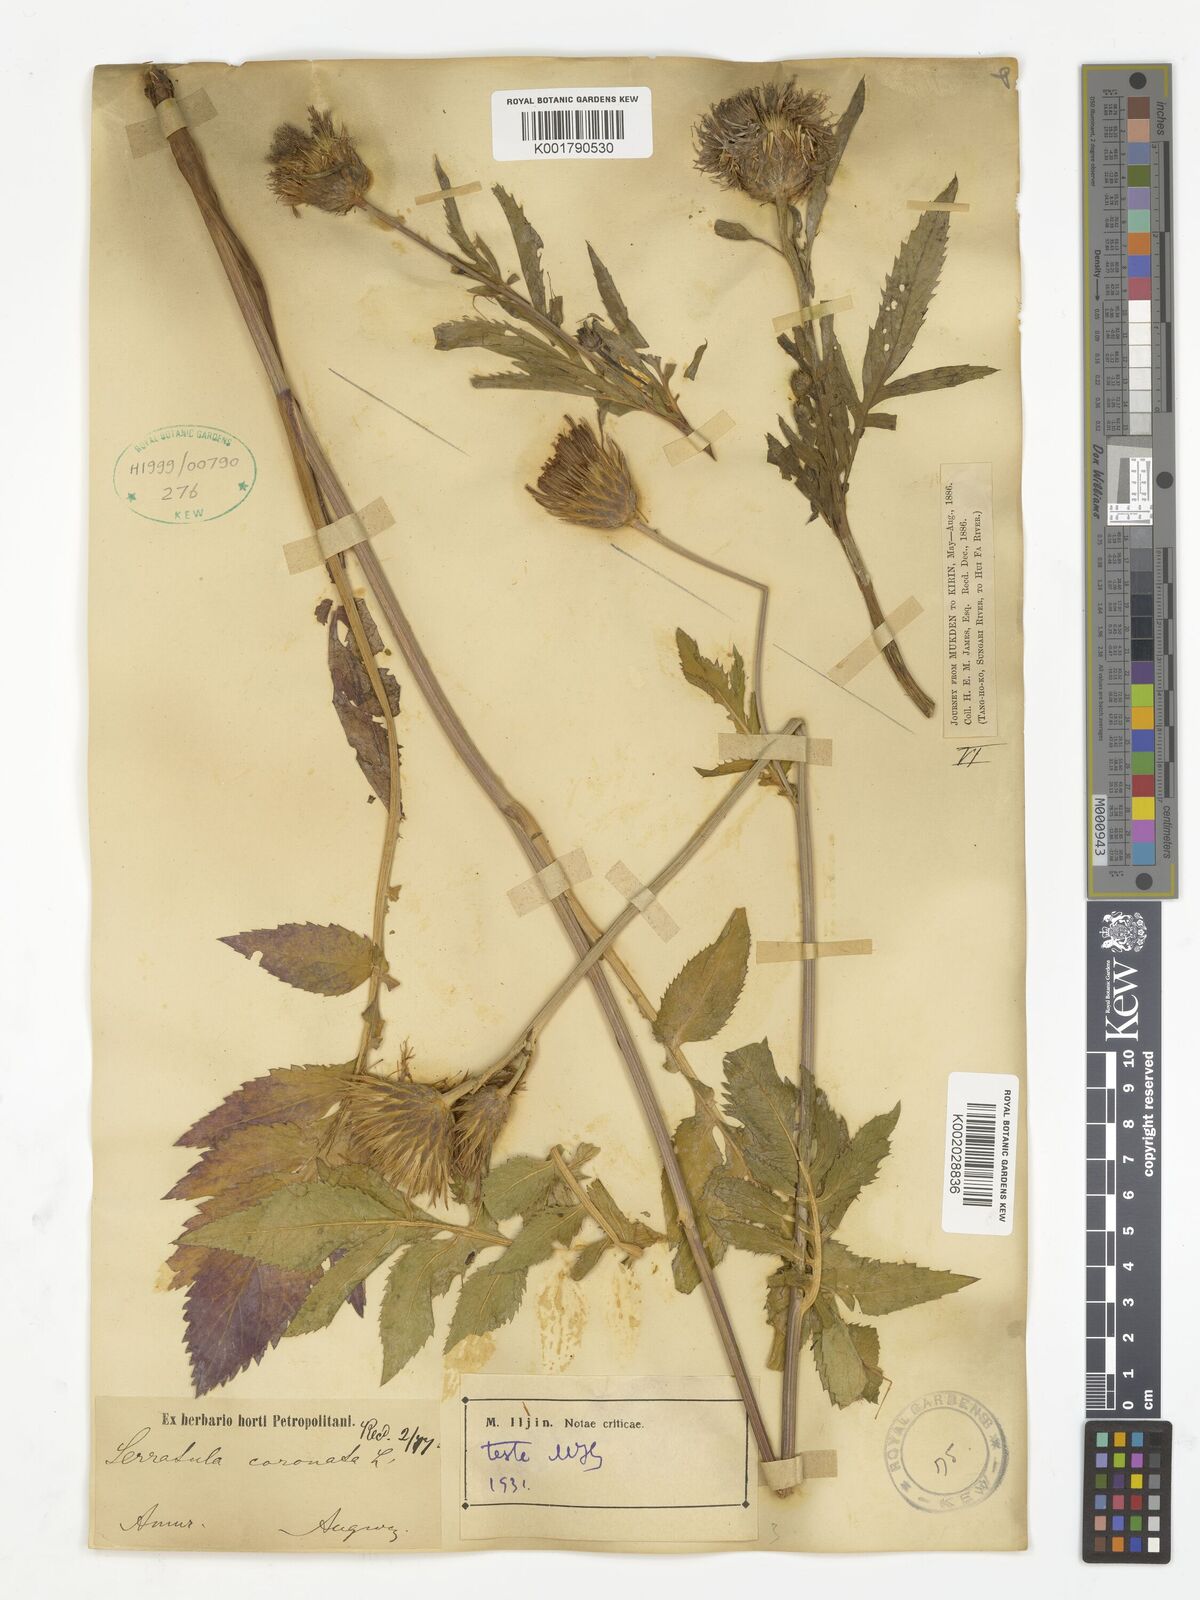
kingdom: Plantae
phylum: Tracheophyta
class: Magnoliopsida
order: Asterales
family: Asteraceae
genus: Serratula
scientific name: Serratula coronata
